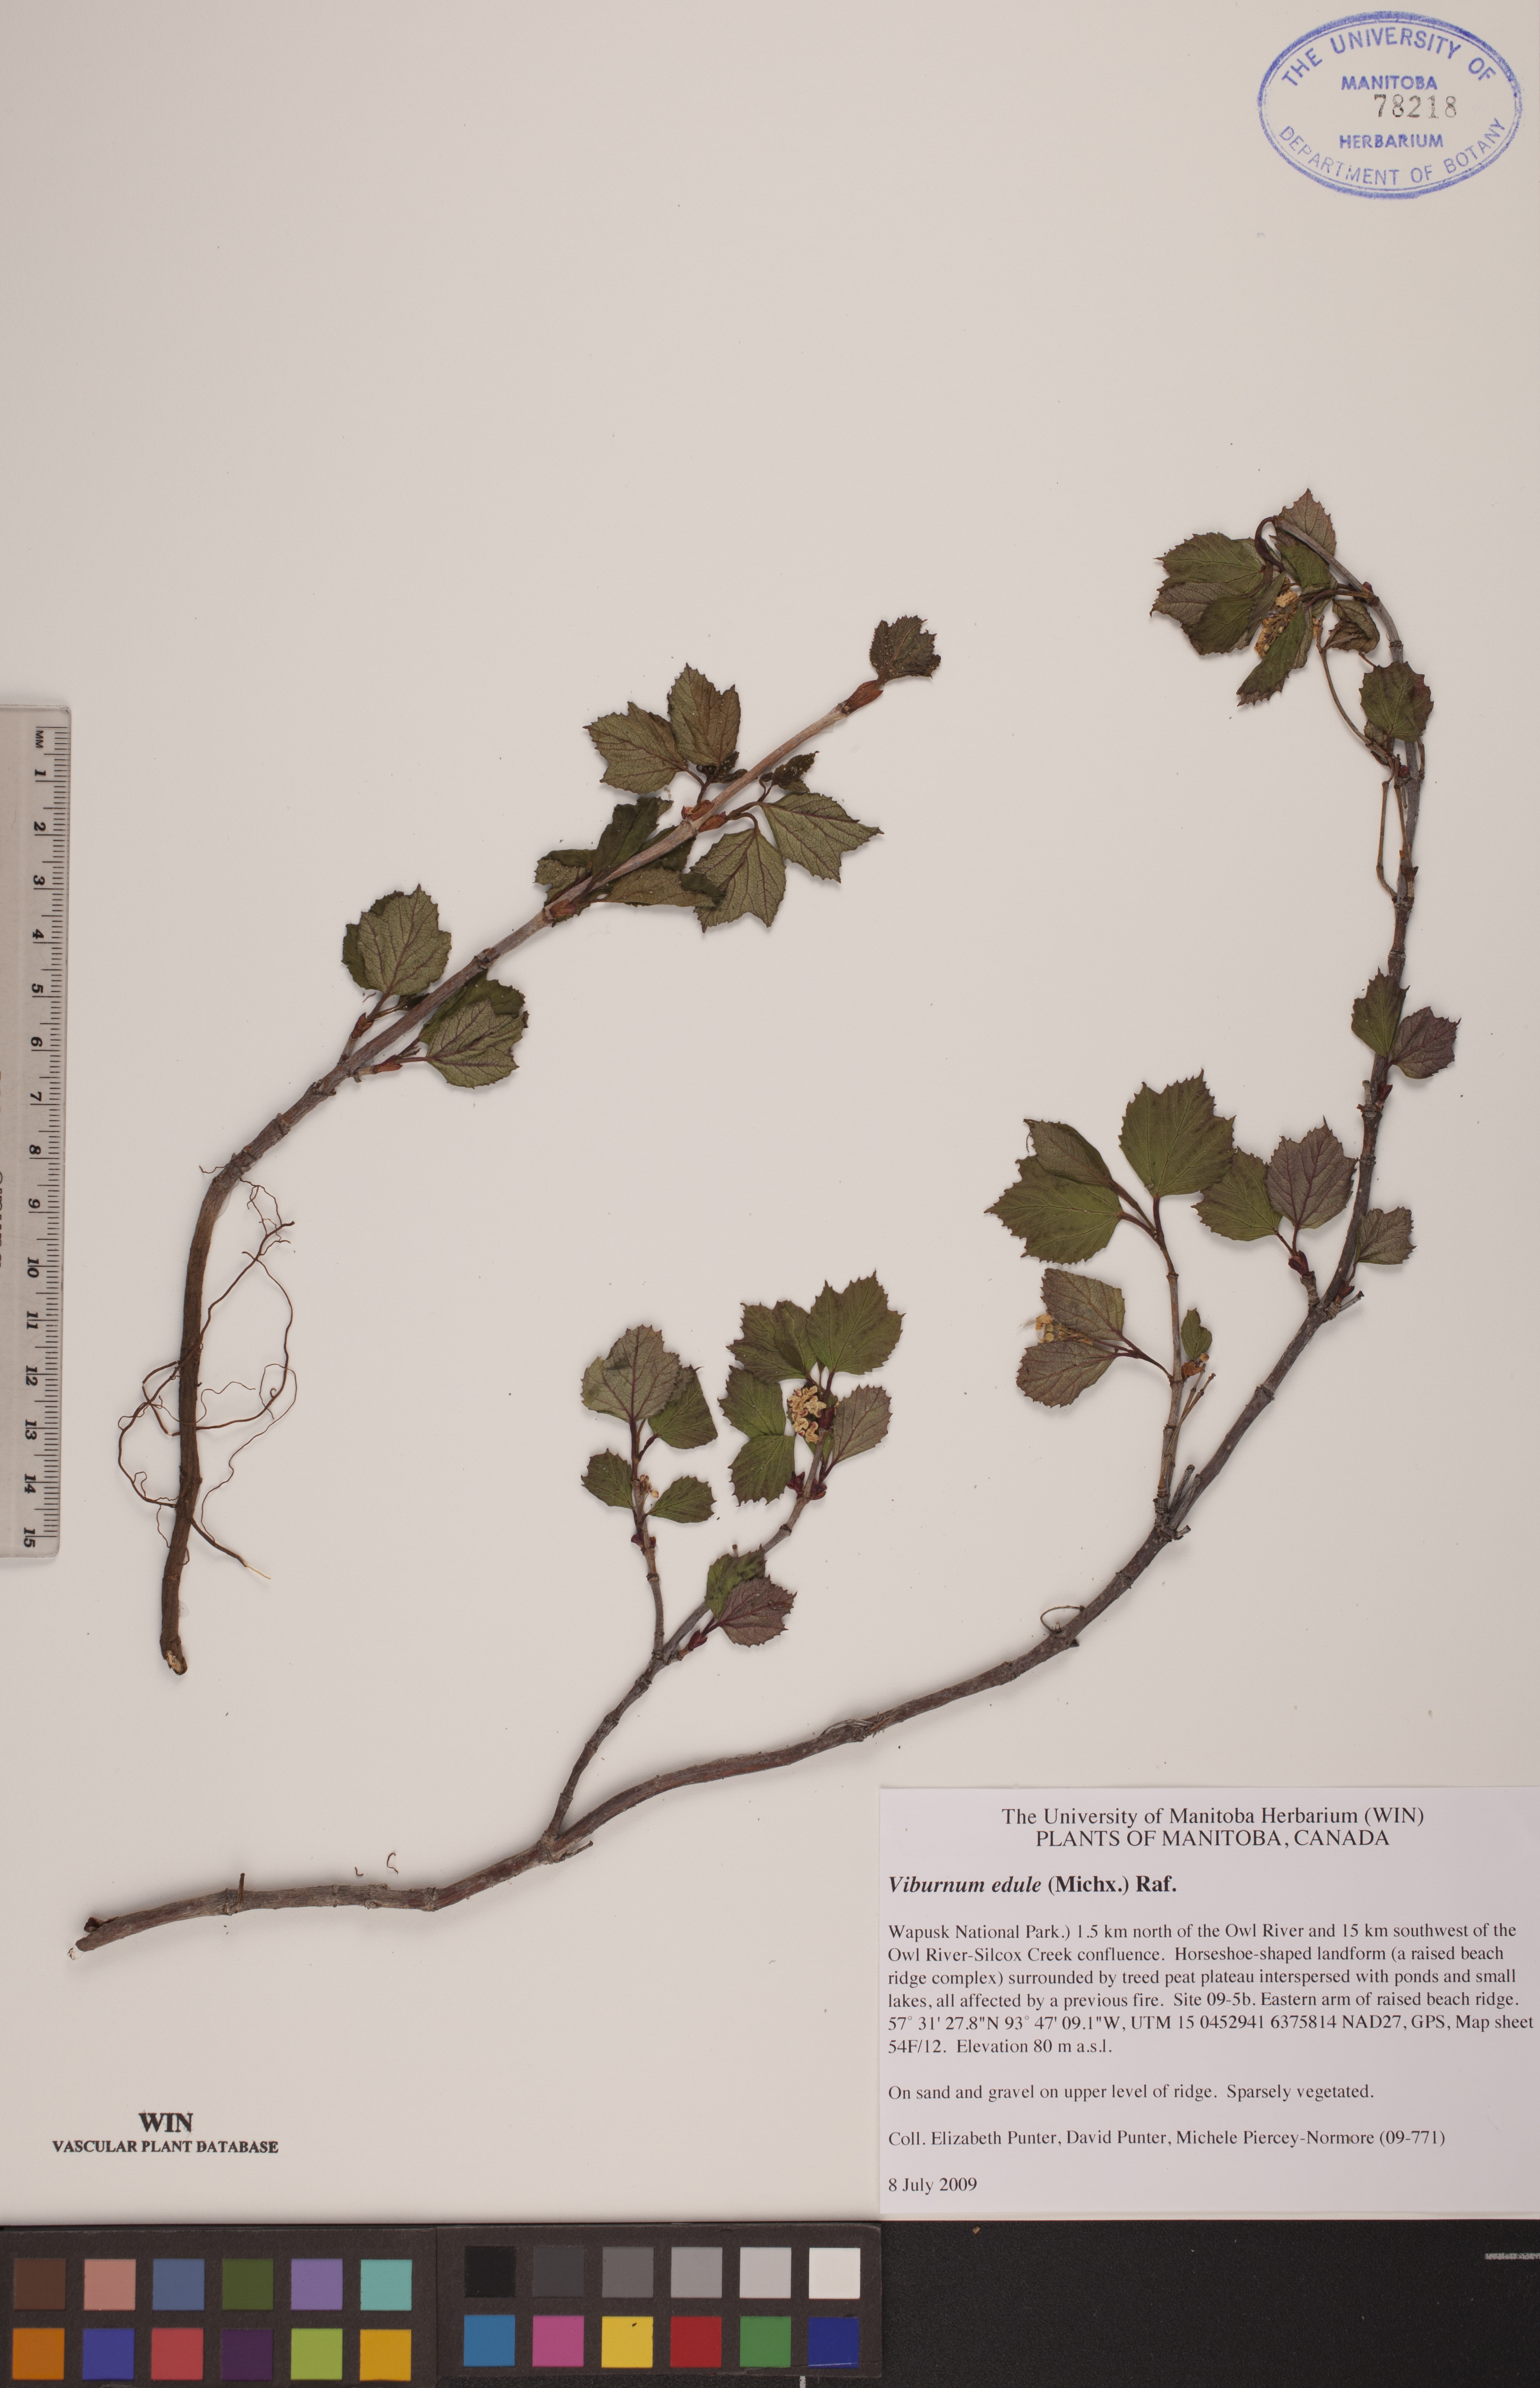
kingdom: Plantae
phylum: Tracheophyta
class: Magnoliopsida
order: Dipsacales
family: Viburnaceae
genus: Viburnum
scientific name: Viburnum edule
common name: Mooseberry
